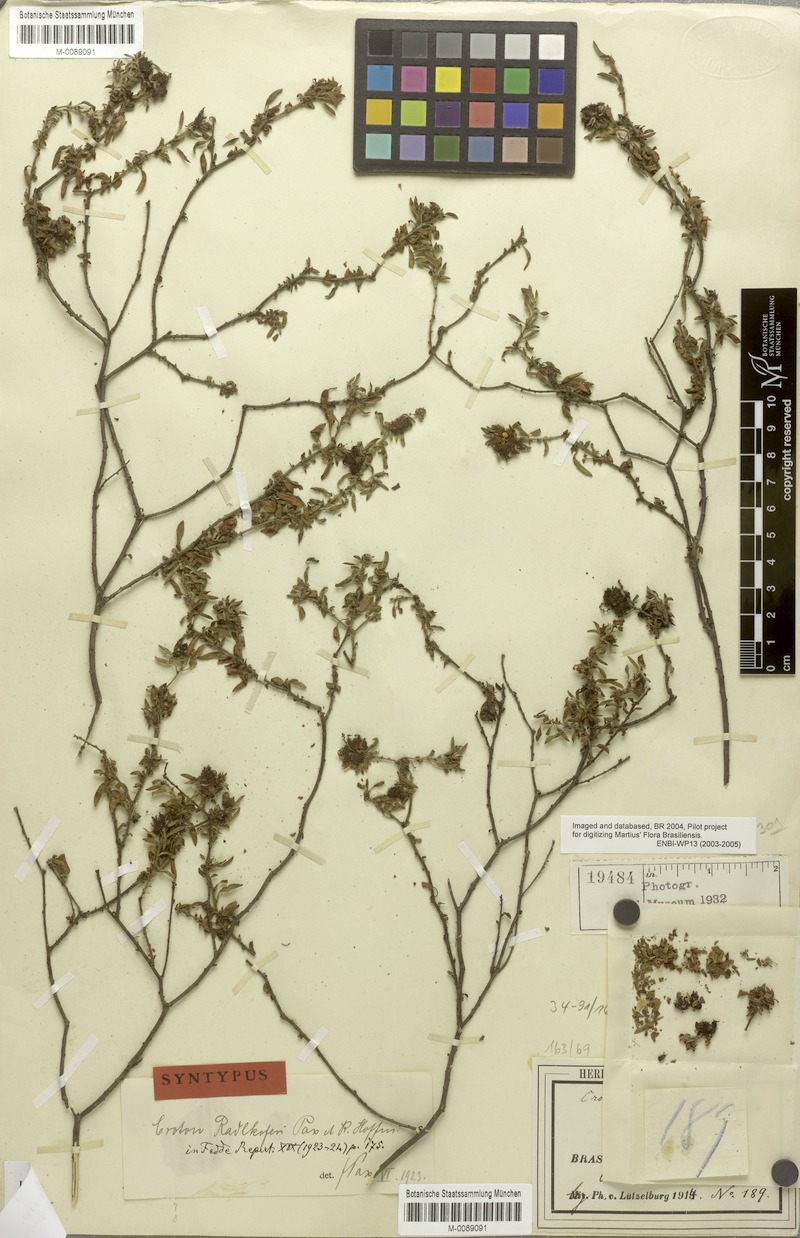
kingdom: Plantae
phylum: Tracheophyta
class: Magnoliopsida
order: Malpighiales
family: Euphorbiaceae
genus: Croton
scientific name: Croton radlkoferi
